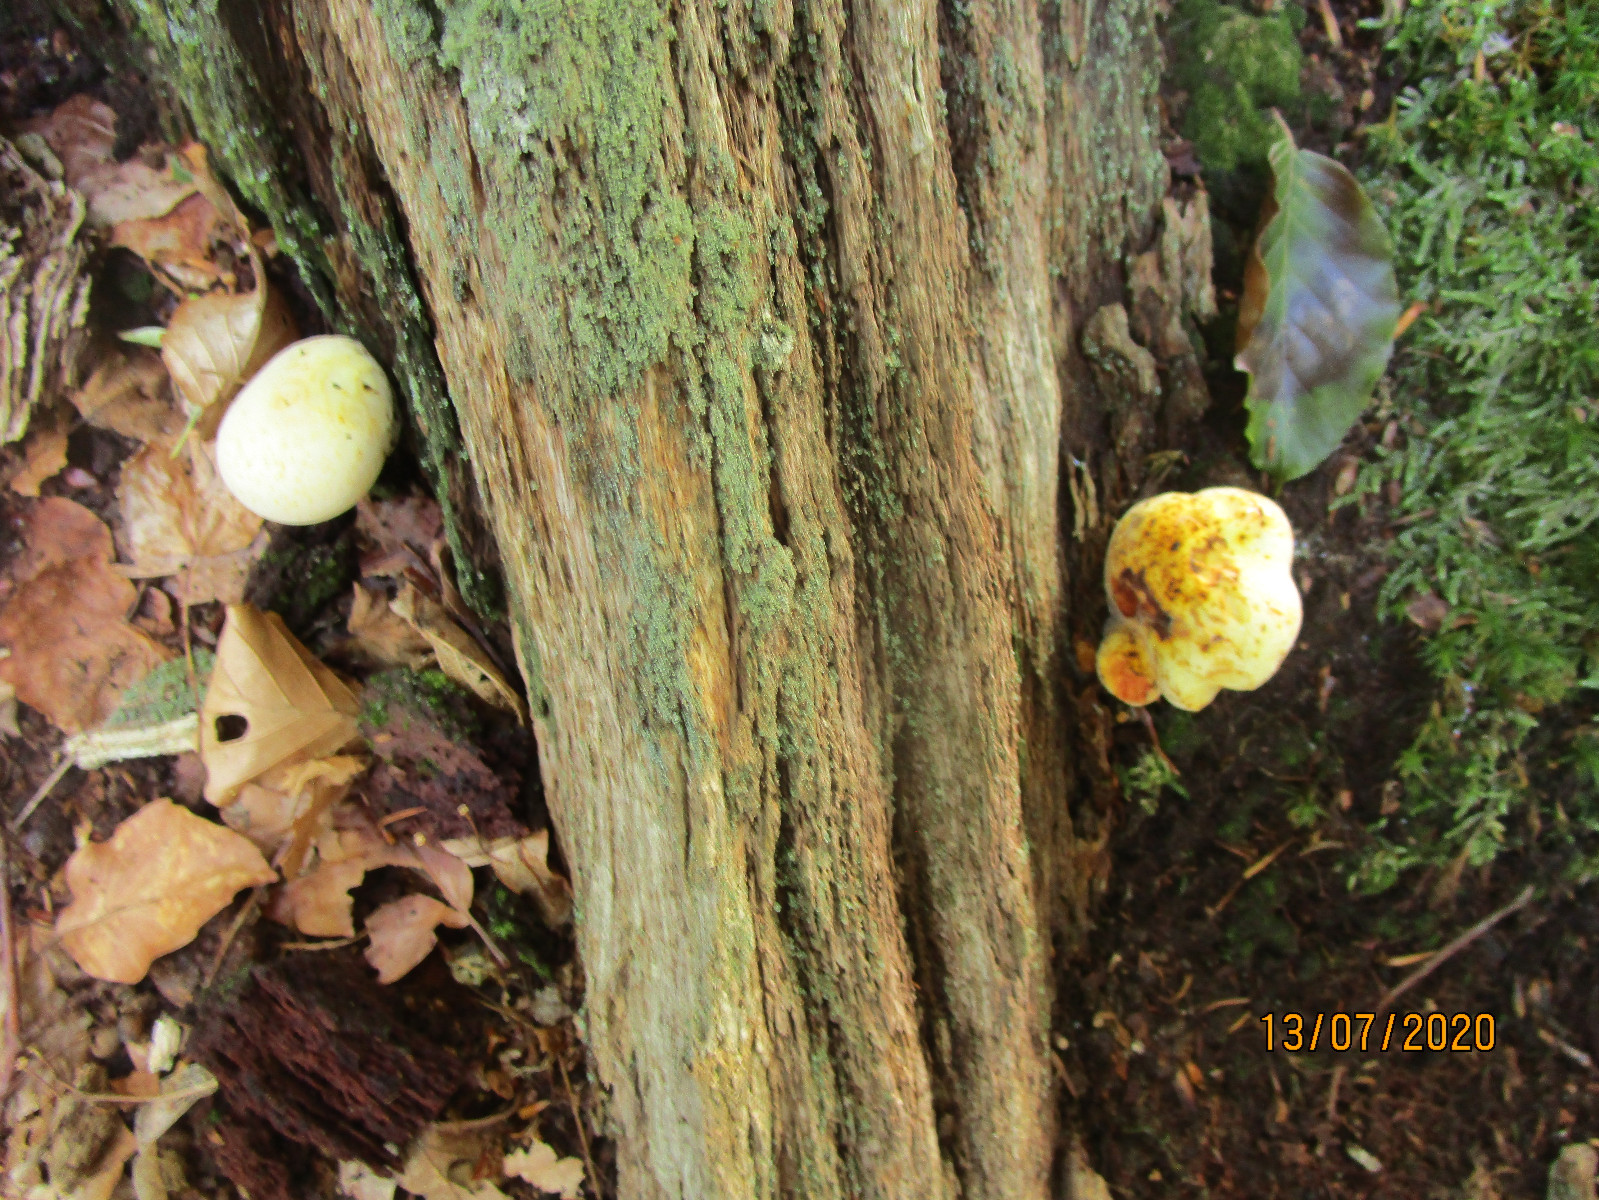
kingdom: Fungi
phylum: Basidiomycota
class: Agaricomycetes
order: Polyporales
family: Fomitopsidaceae
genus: Buglossoporus
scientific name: Buglossoporus quercinus
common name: egetunge
